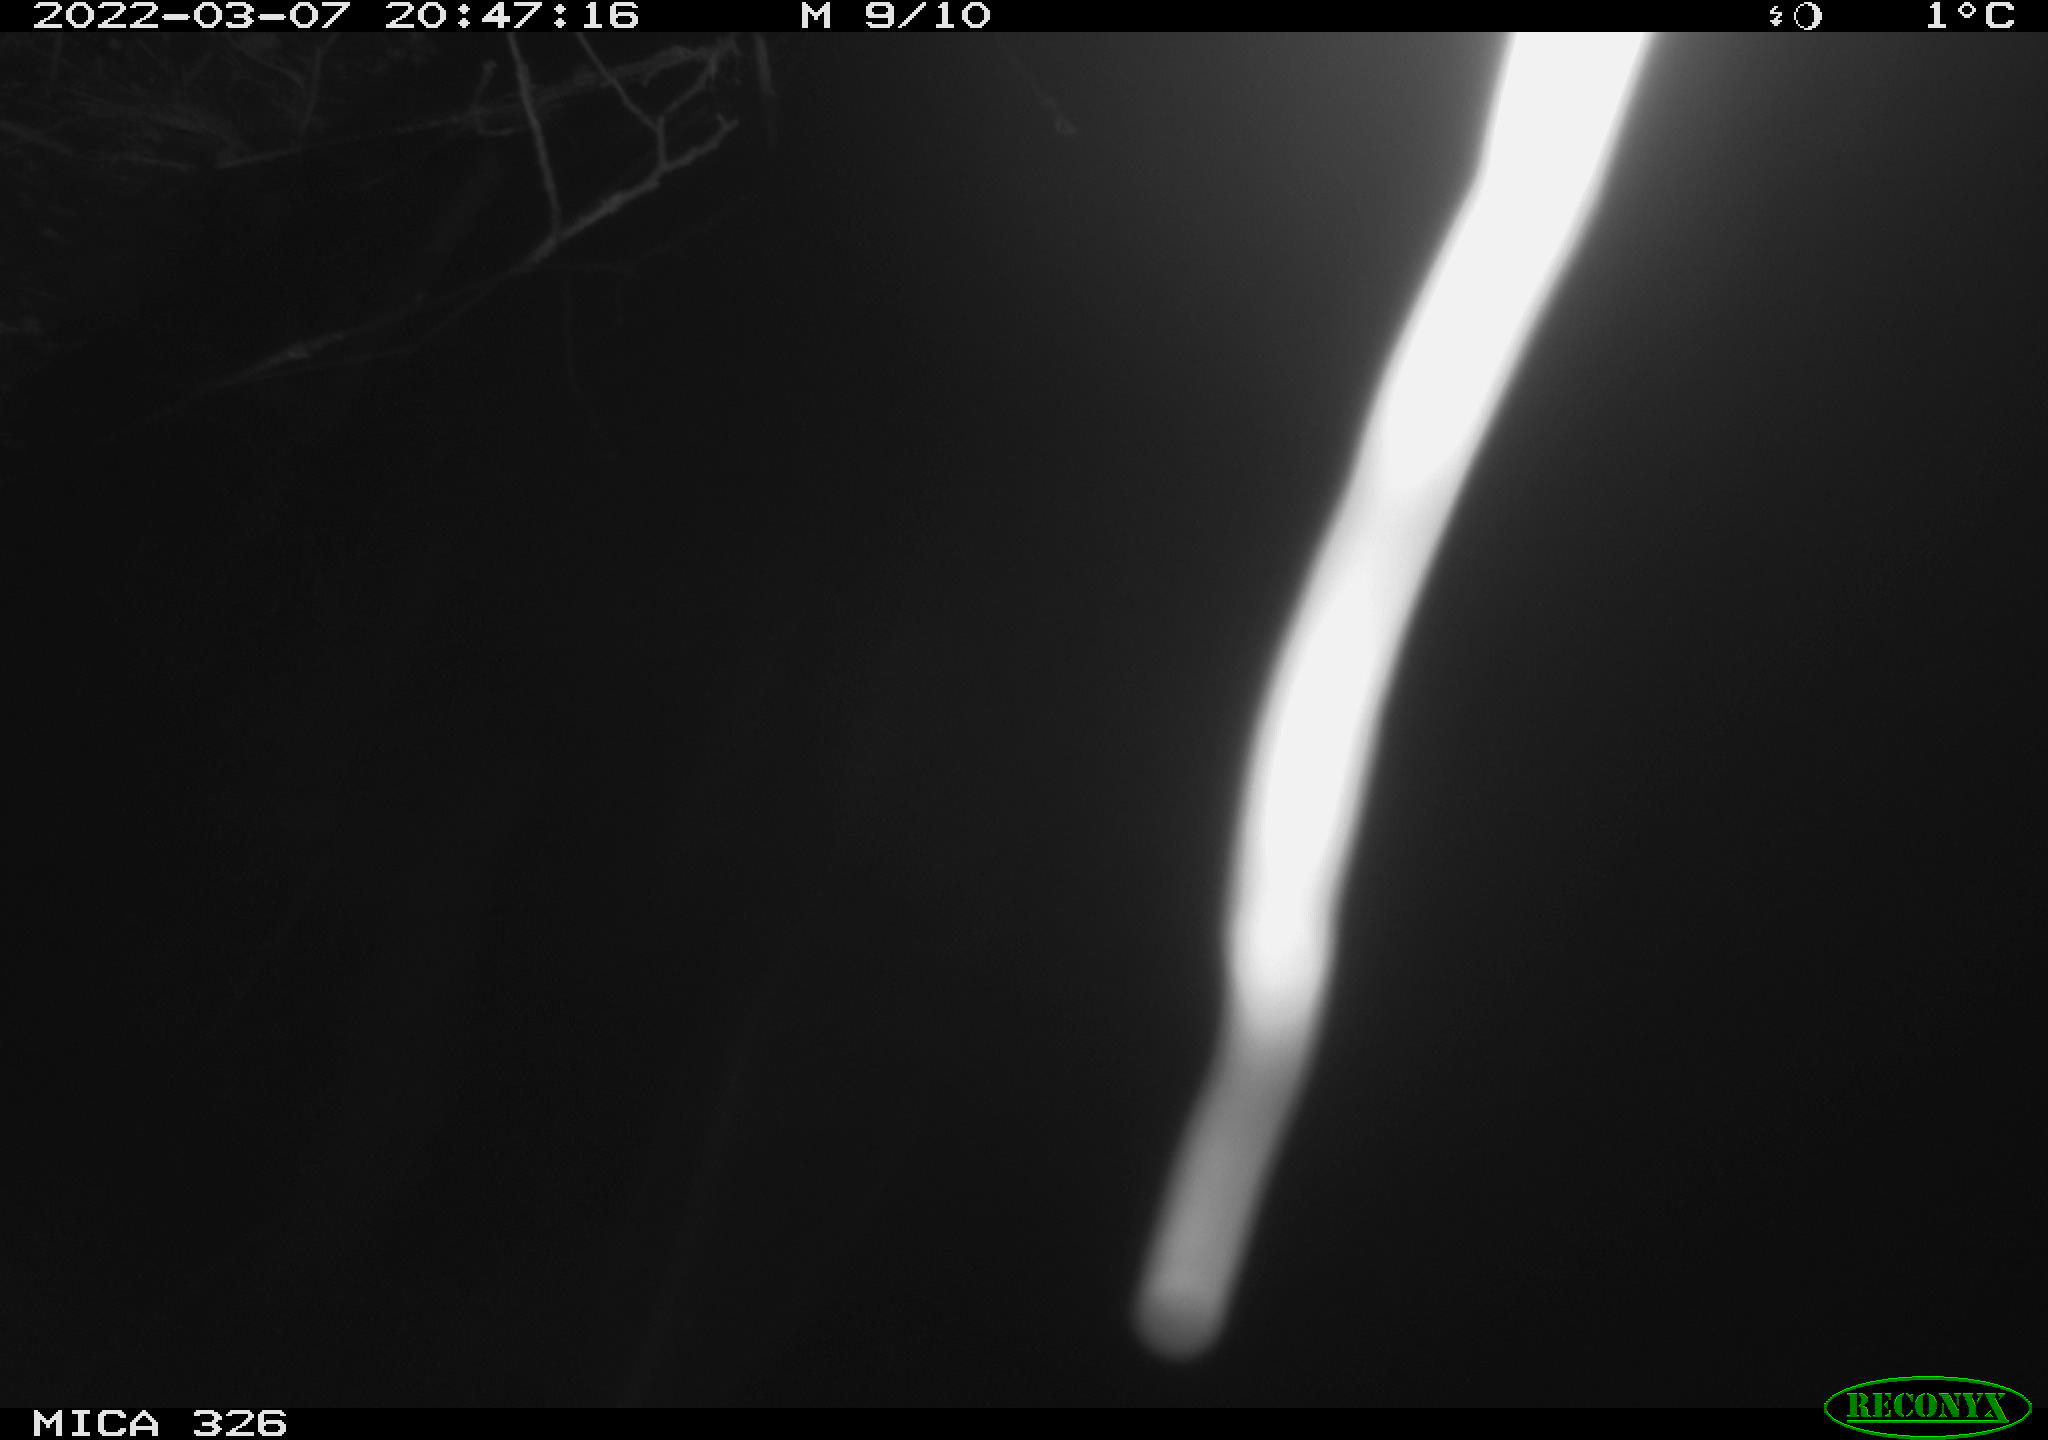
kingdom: Animalia
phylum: Chordata
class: Mammalia
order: Rodentia
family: Muridae
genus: Rattus
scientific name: Rattus norvegicus
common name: Brown rat
